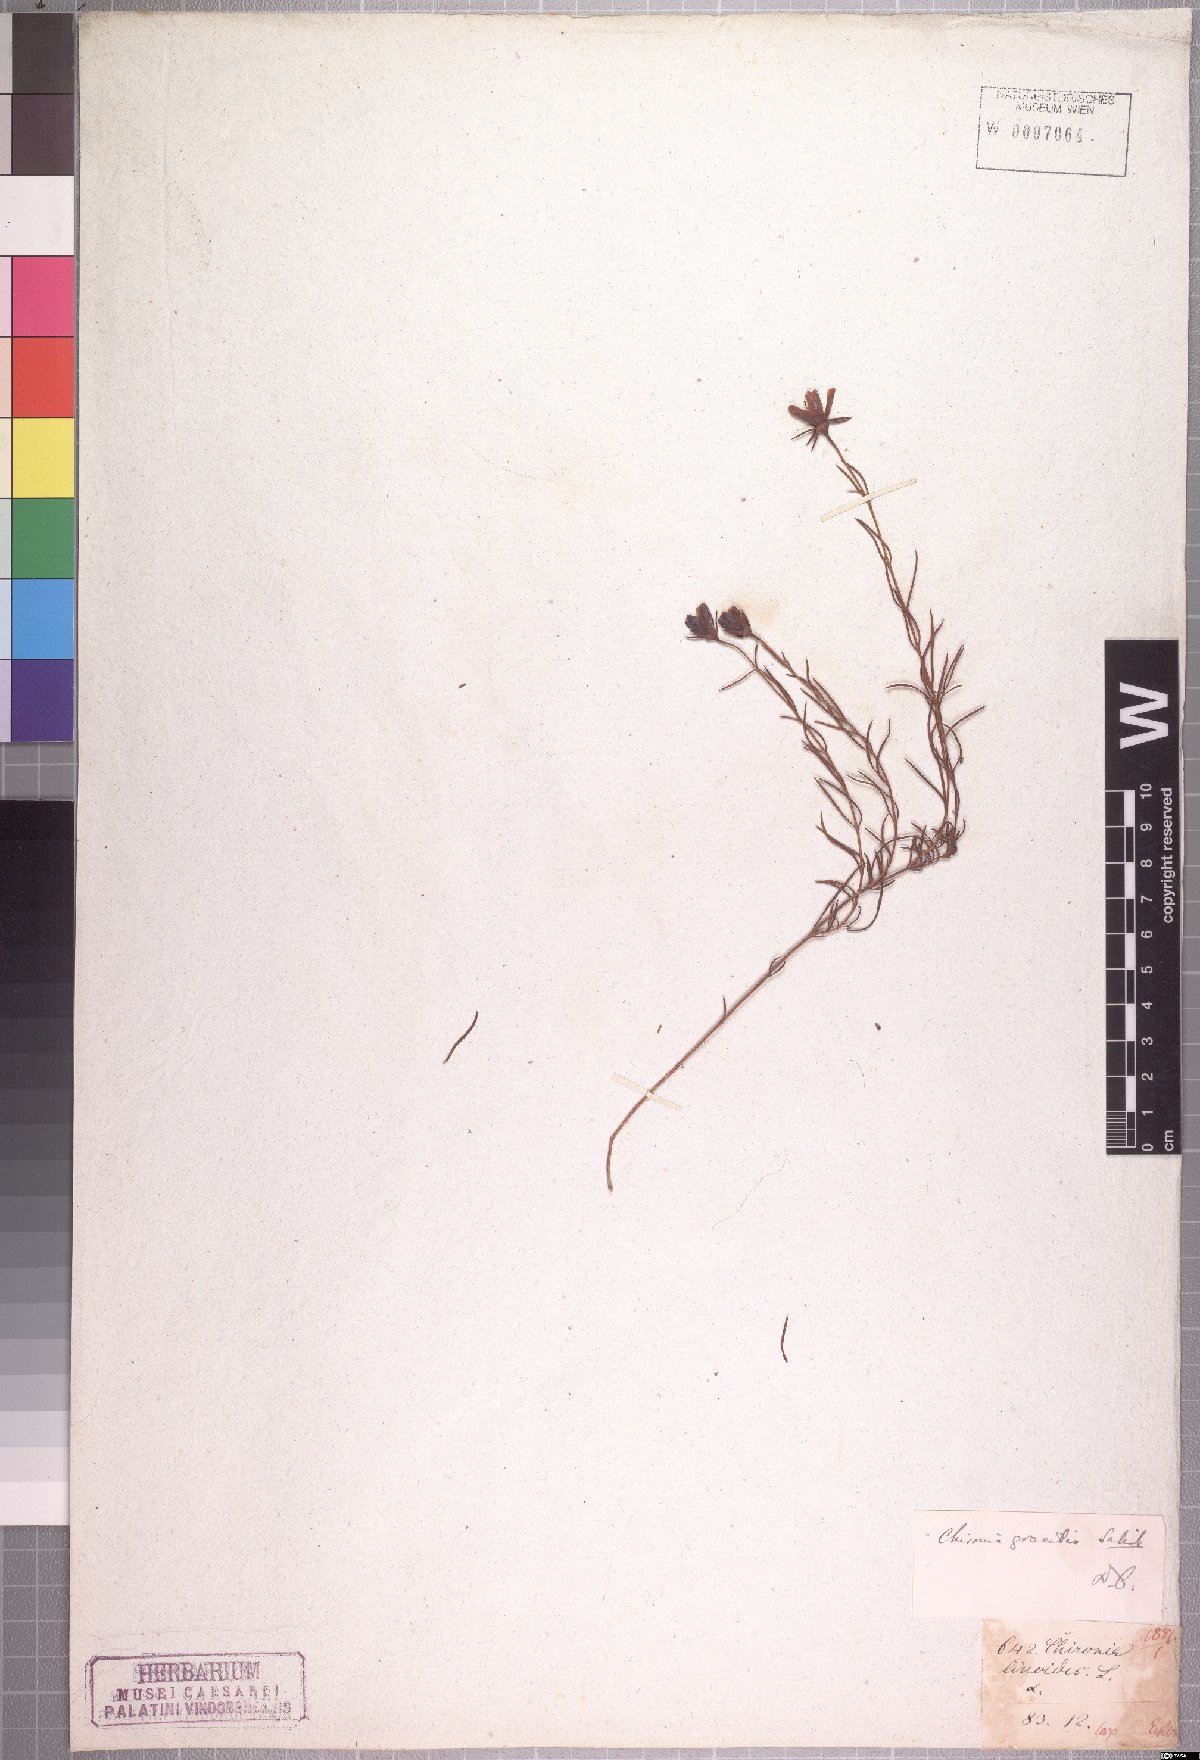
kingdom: Plantae
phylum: Tracheophyta
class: Magnoliopsida
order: Gentianales
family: Gentianaceae
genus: Chironia
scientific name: Chironia linoides
